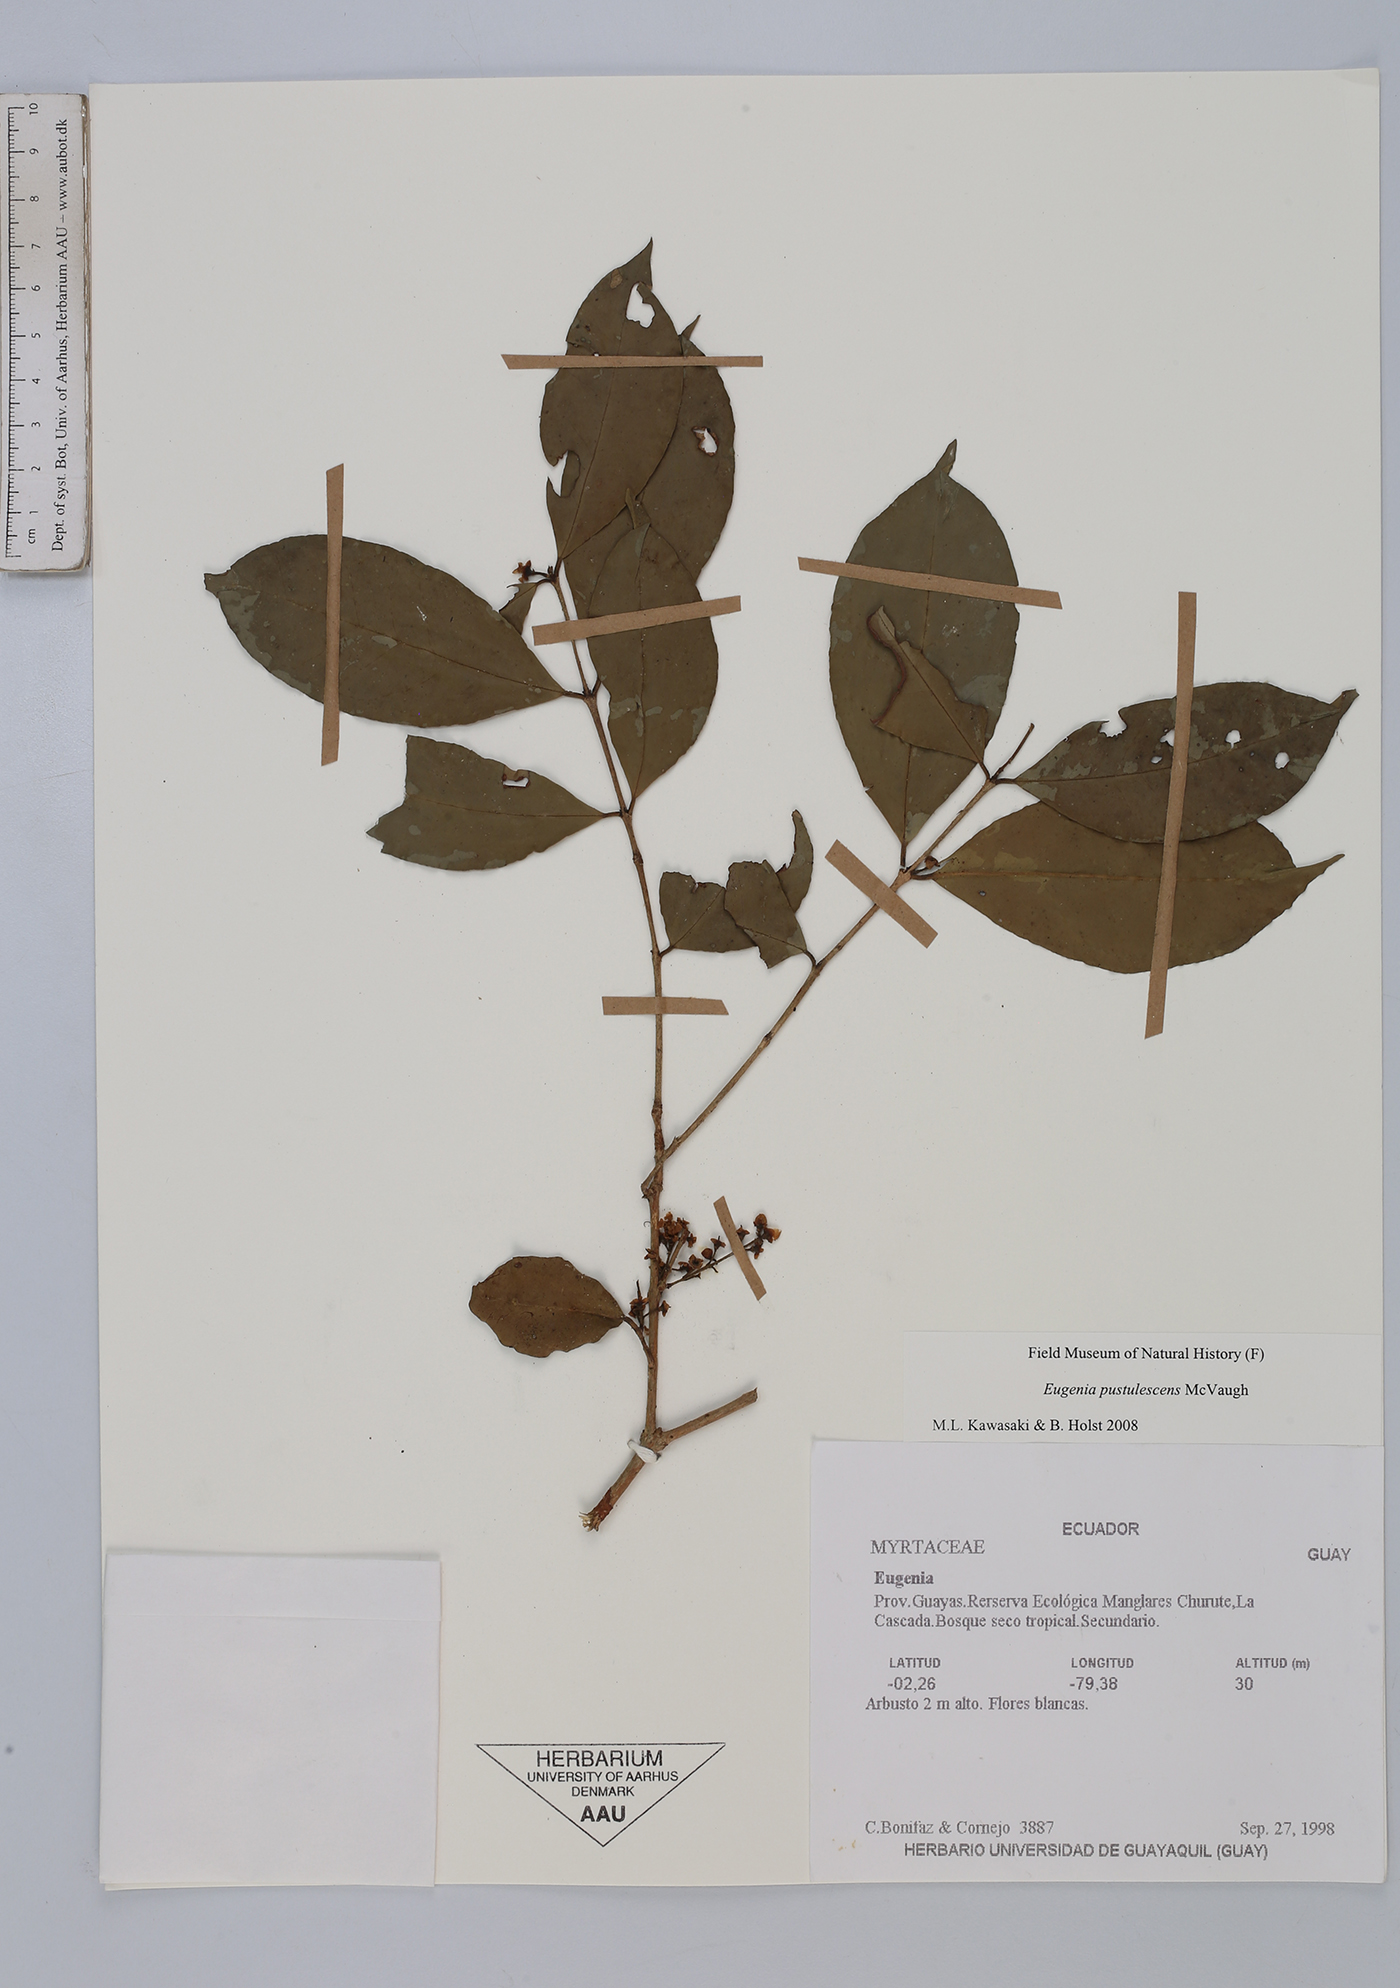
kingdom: Plantae
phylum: Tracheophyta
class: Magnoliopsida
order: Myrtales
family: Myrtaceae
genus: Eugenia
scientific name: Eugenia pustulescens
